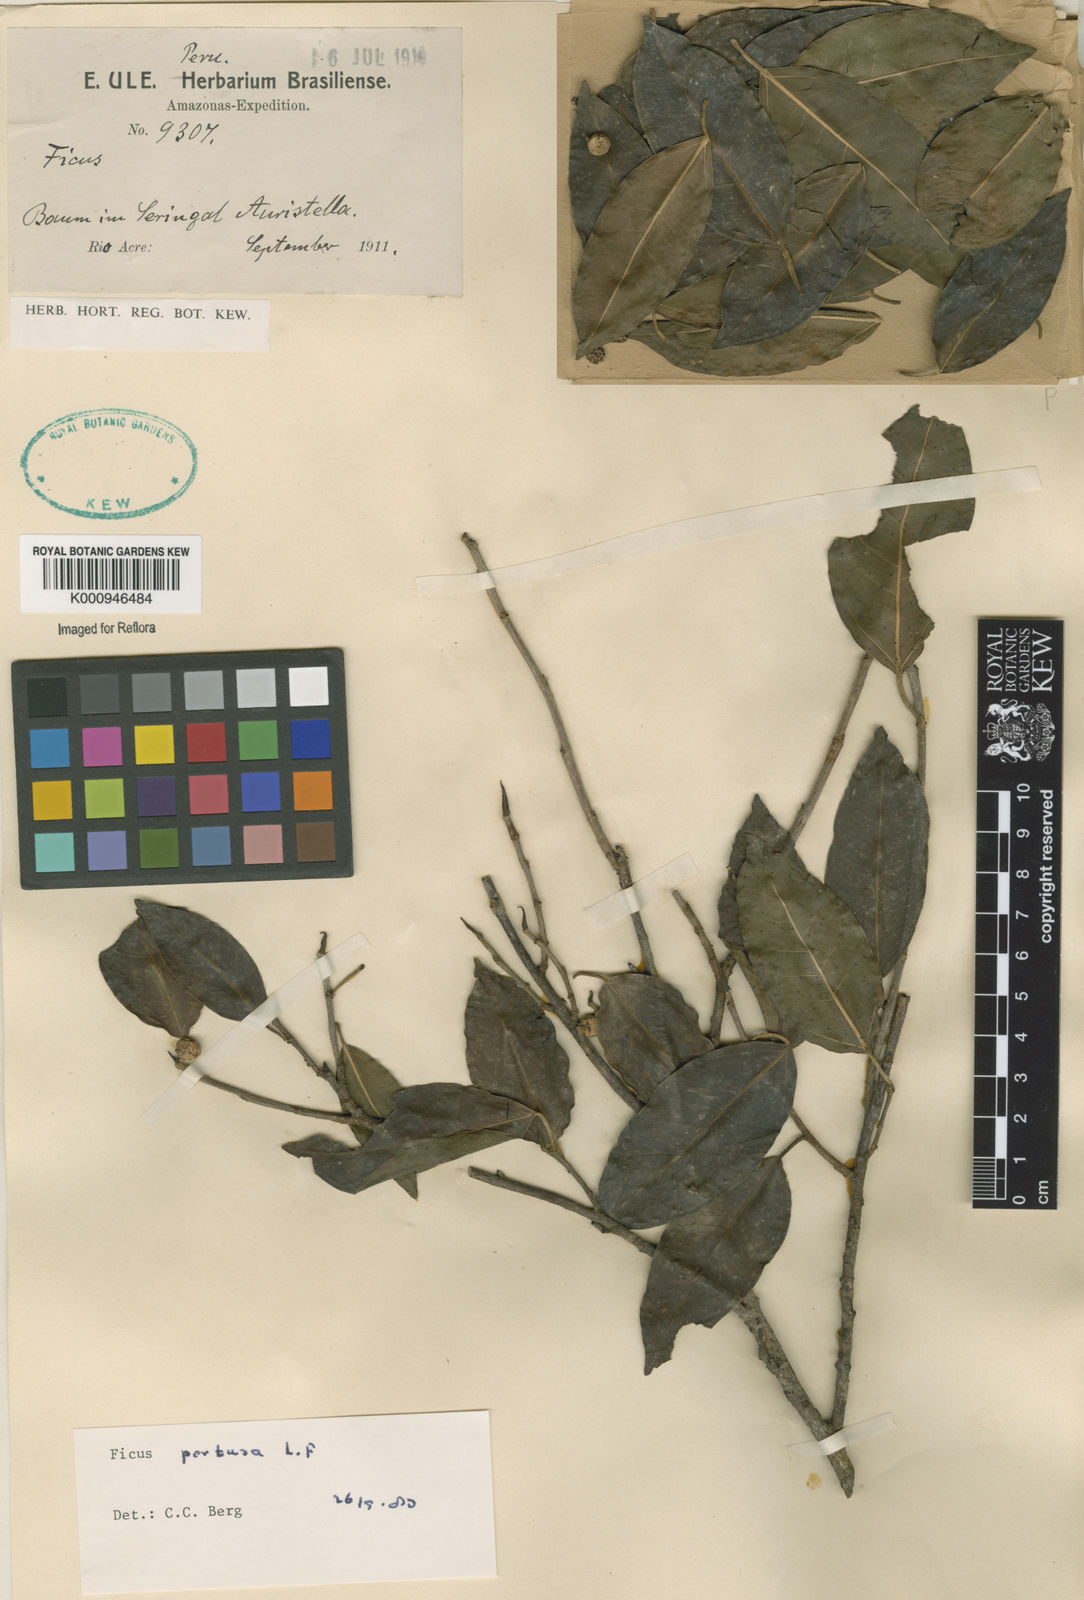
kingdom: Plantae
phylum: Tracheophyta
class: Magnoliopsida
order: Rosales
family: Moraceae
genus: Ficus
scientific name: Ficus pertusa
